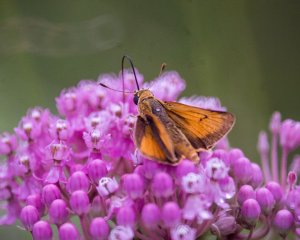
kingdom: Animalia
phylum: Arthropoda
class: Insecta
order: Lepidoptera
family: Hesperiidae
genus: Atrytone
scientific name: Atrytone delaware
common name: Delaware Skipper
